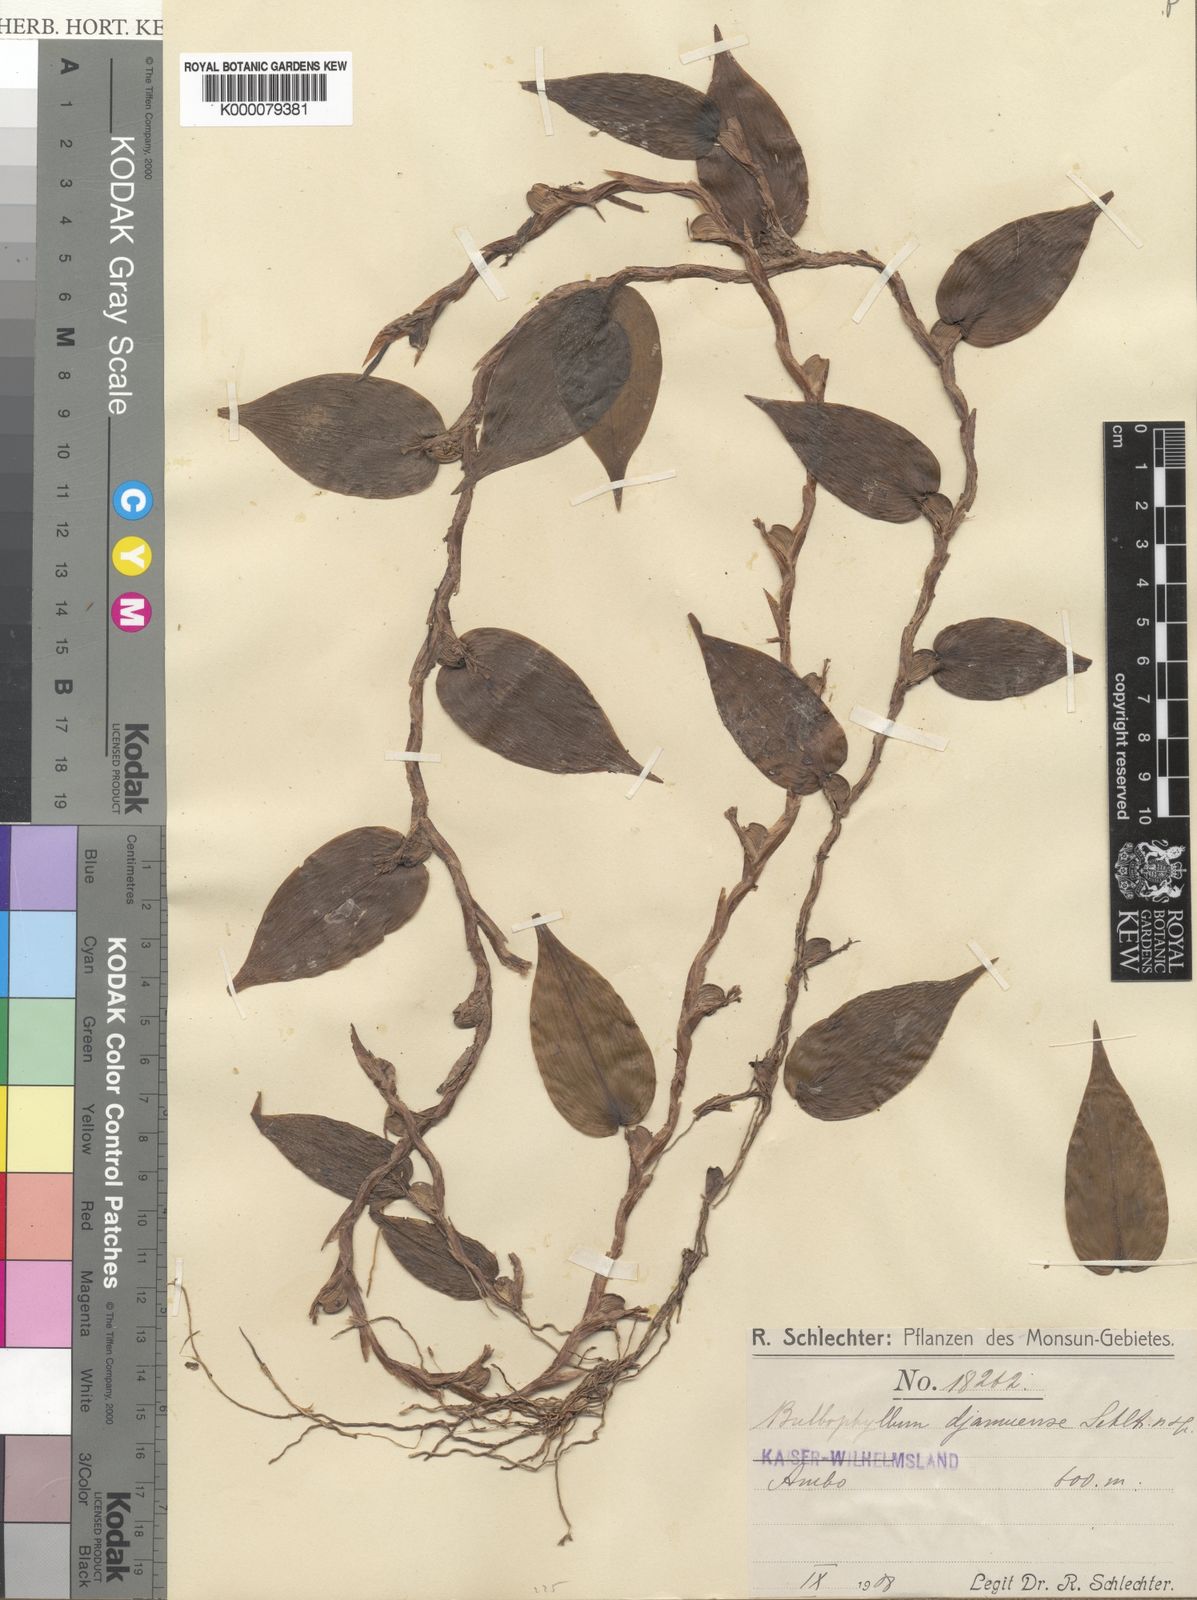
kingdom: Plantae
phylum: Tracheophyta
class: Liliopsida
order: Asparagales
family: Orchidaceae
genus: Bulbophyllum
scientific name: Bulbophyllum djamuense
